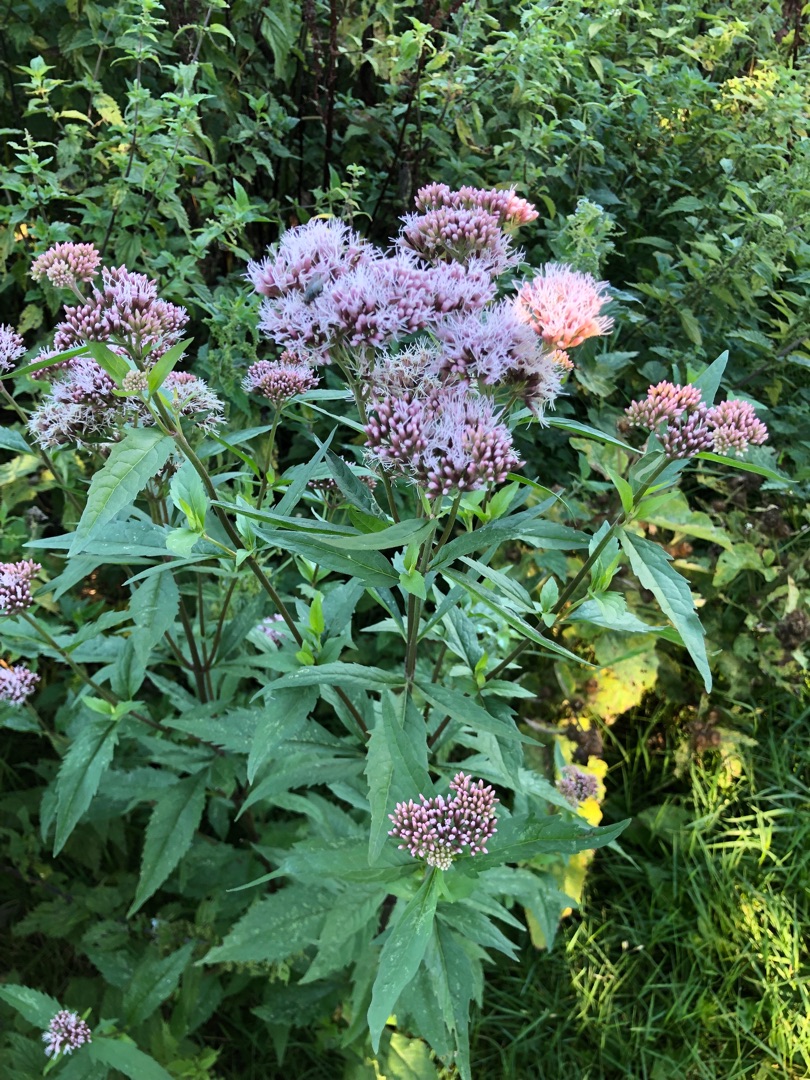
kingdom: Plantae
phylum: Tracheophyta
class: Magnoliopsida
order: Asterales
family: Asteraceae
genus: Eupatorium
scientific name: Eupatorium cannabinum
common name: Hjortetrøst
